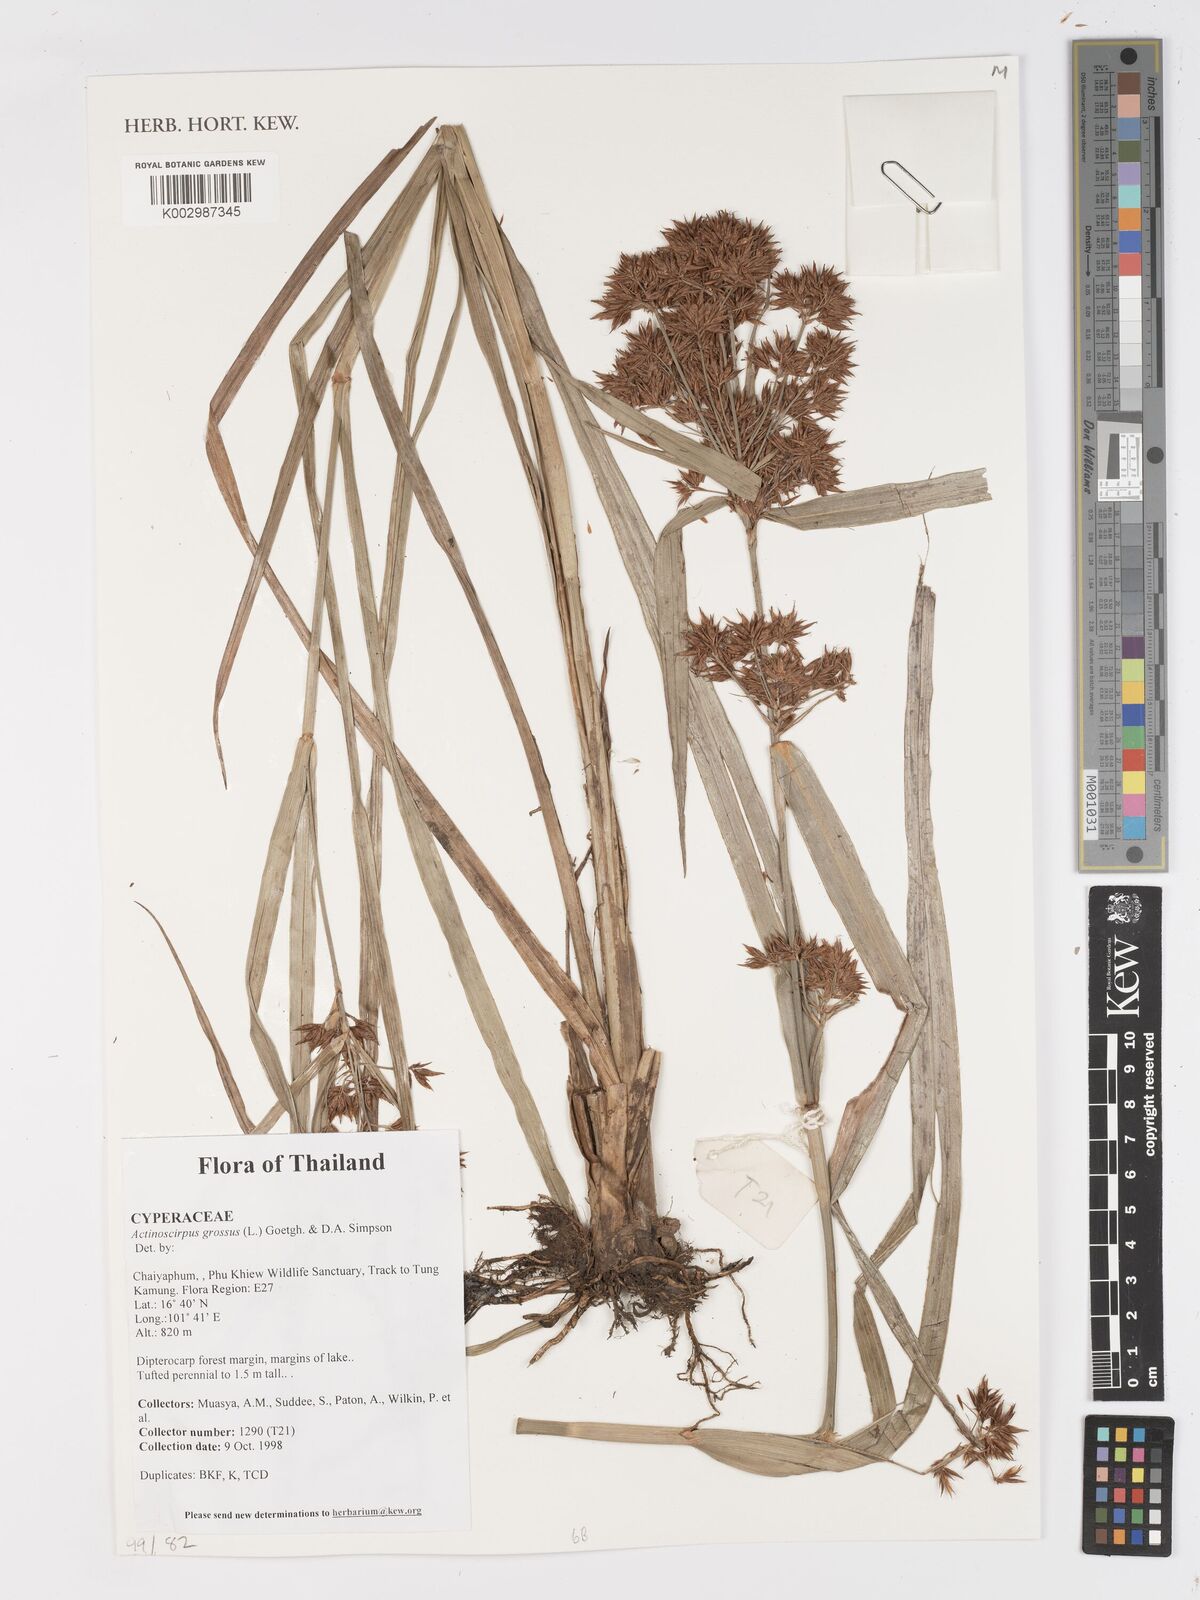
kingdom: Plantae
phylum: Tracheophyta
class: Liliopsida
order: Poales
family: Cyperaceae
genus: Actinoscirpus
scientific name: Actinoscirpus grossus
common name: Giant bur rush
